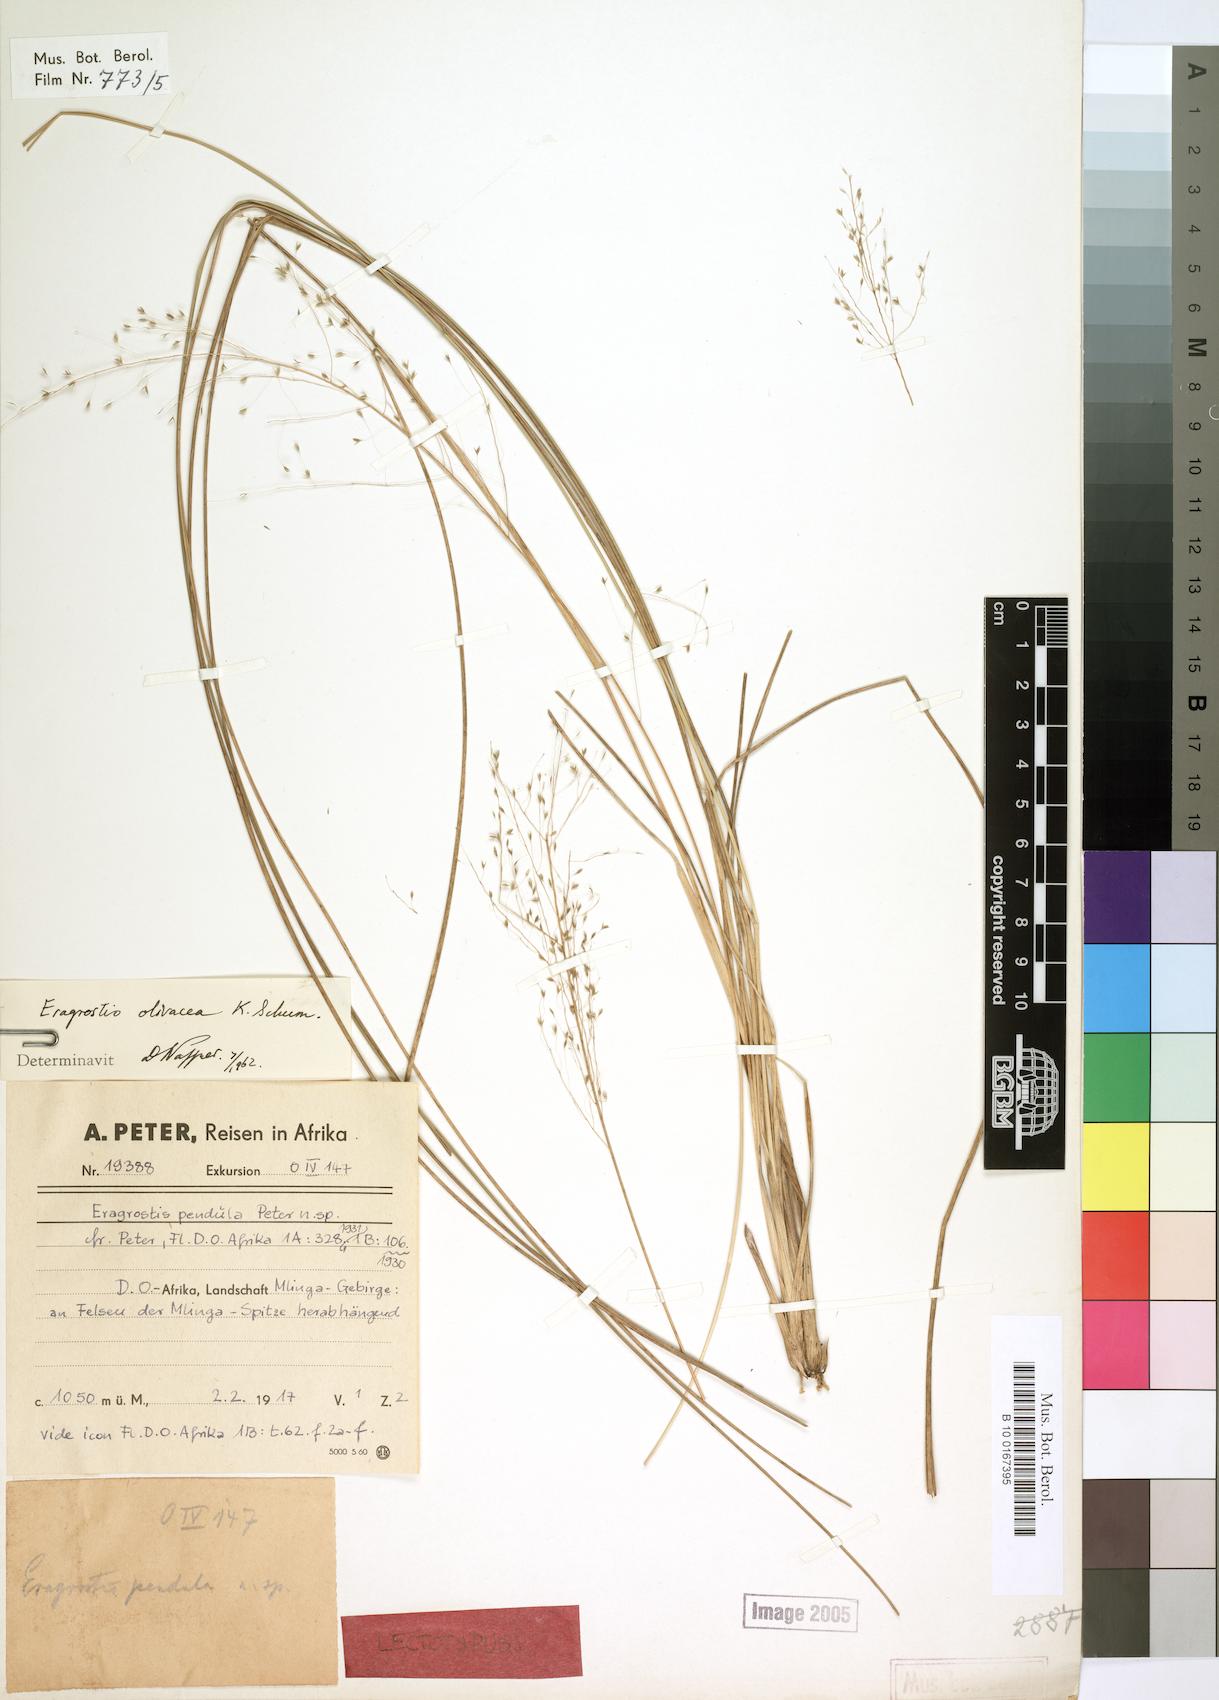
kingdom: Plantae
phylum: Tracheophyta
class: Liliopsida
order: Poales
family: Poaceae
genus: Eragrostis
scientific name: Eragrostis olivacea
